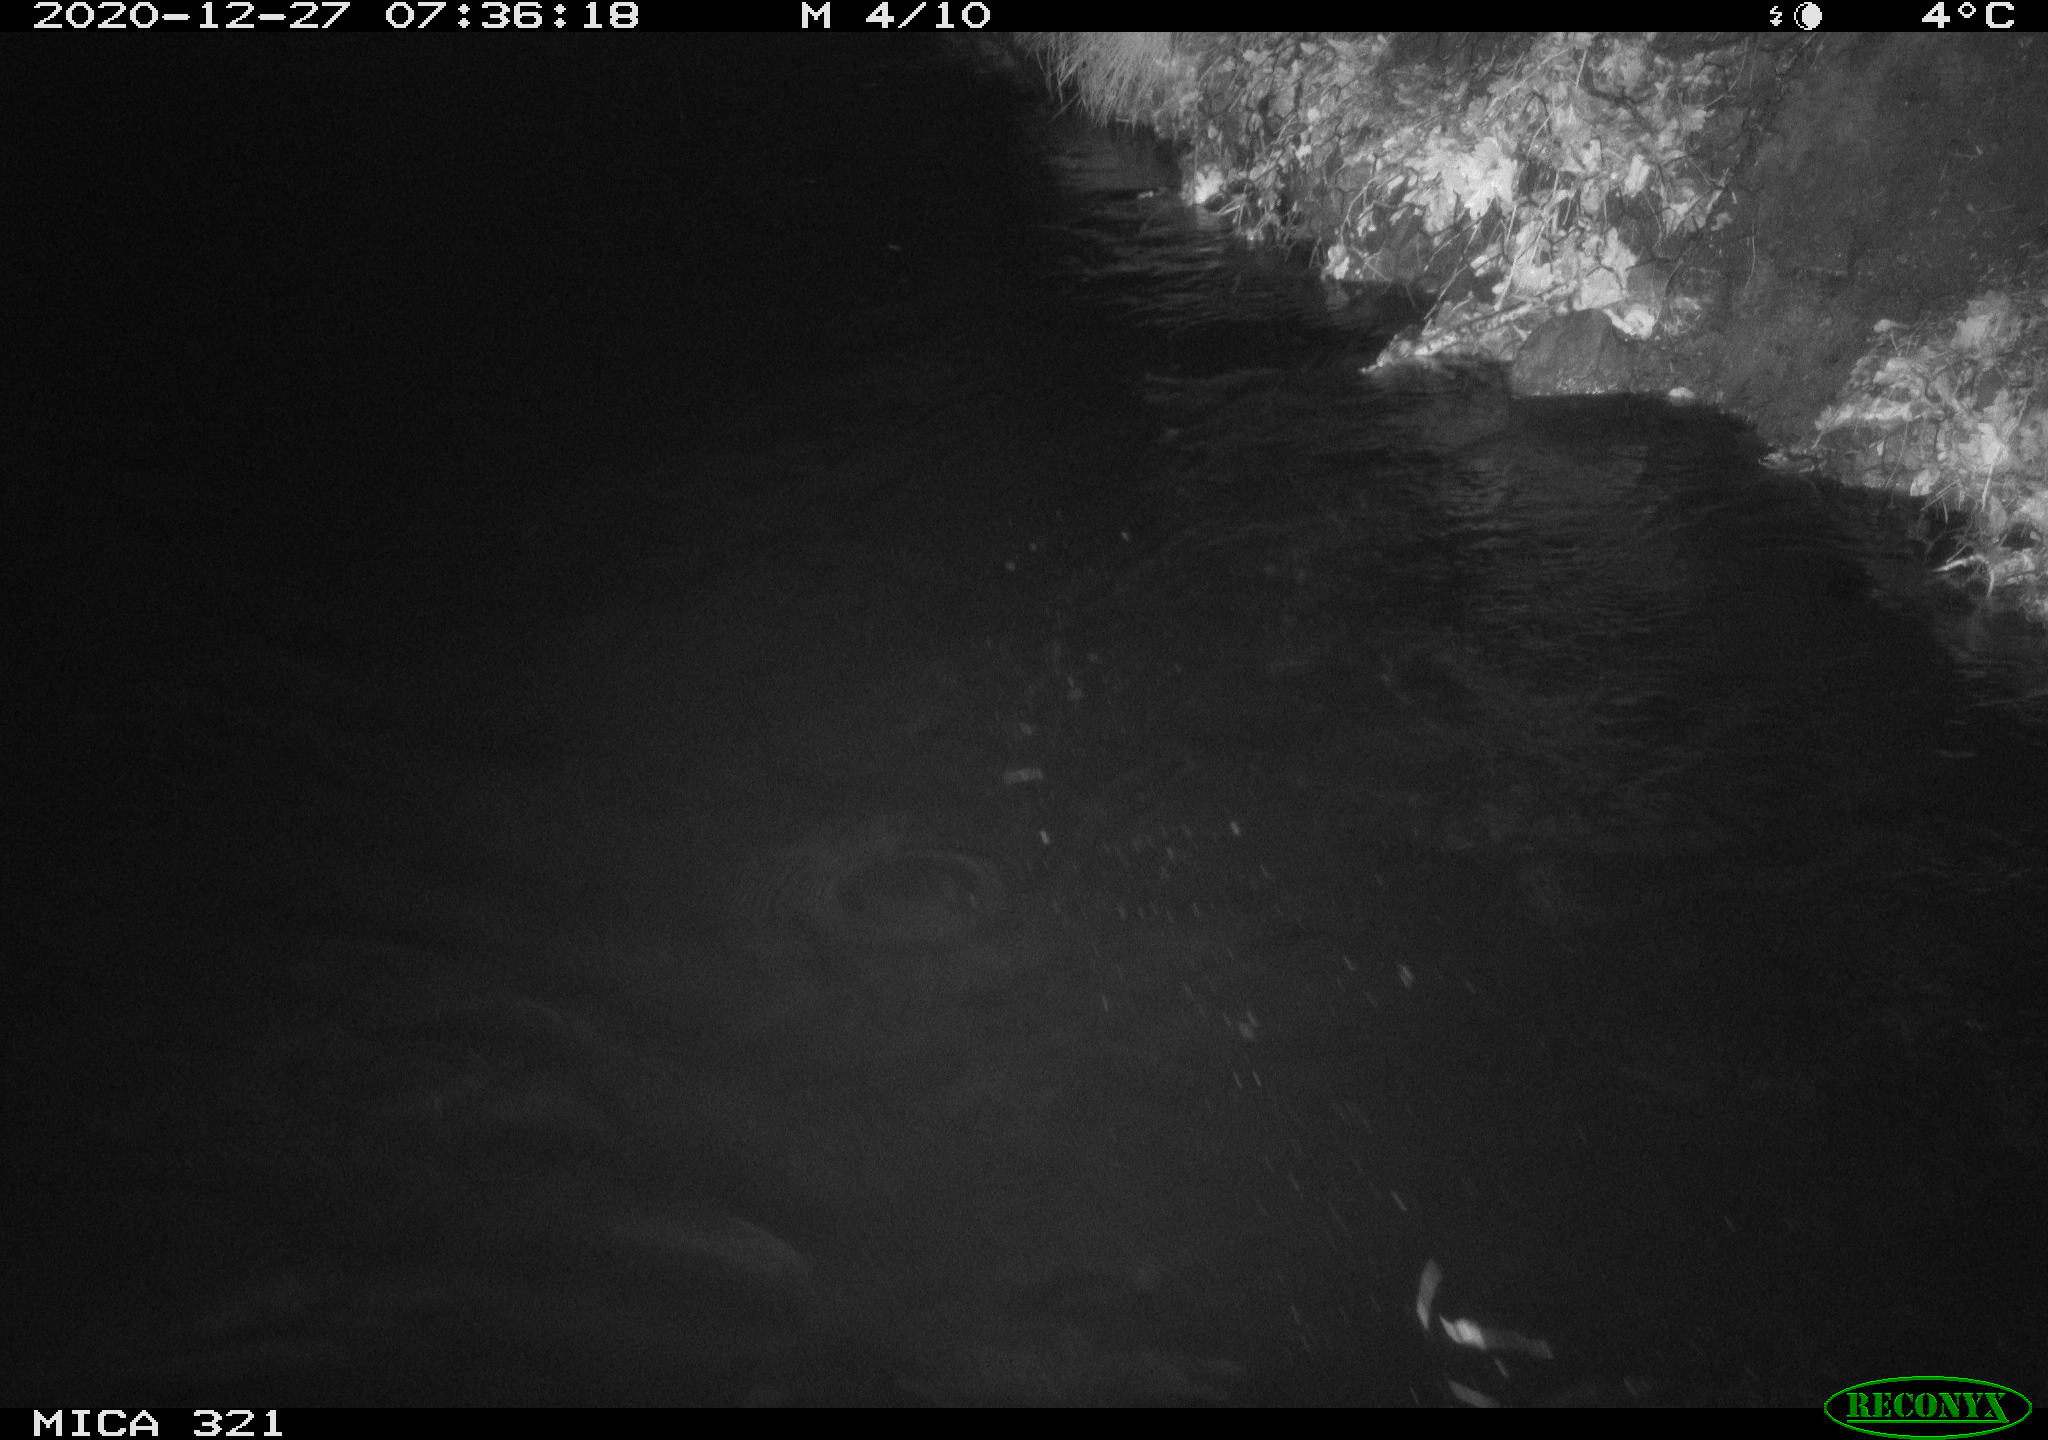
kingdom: Animalia
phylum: Chordata
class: Aves
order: Anseriformes
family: Anatidae
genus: Anas
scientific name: Anas platyrhynchos
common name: Mallard
